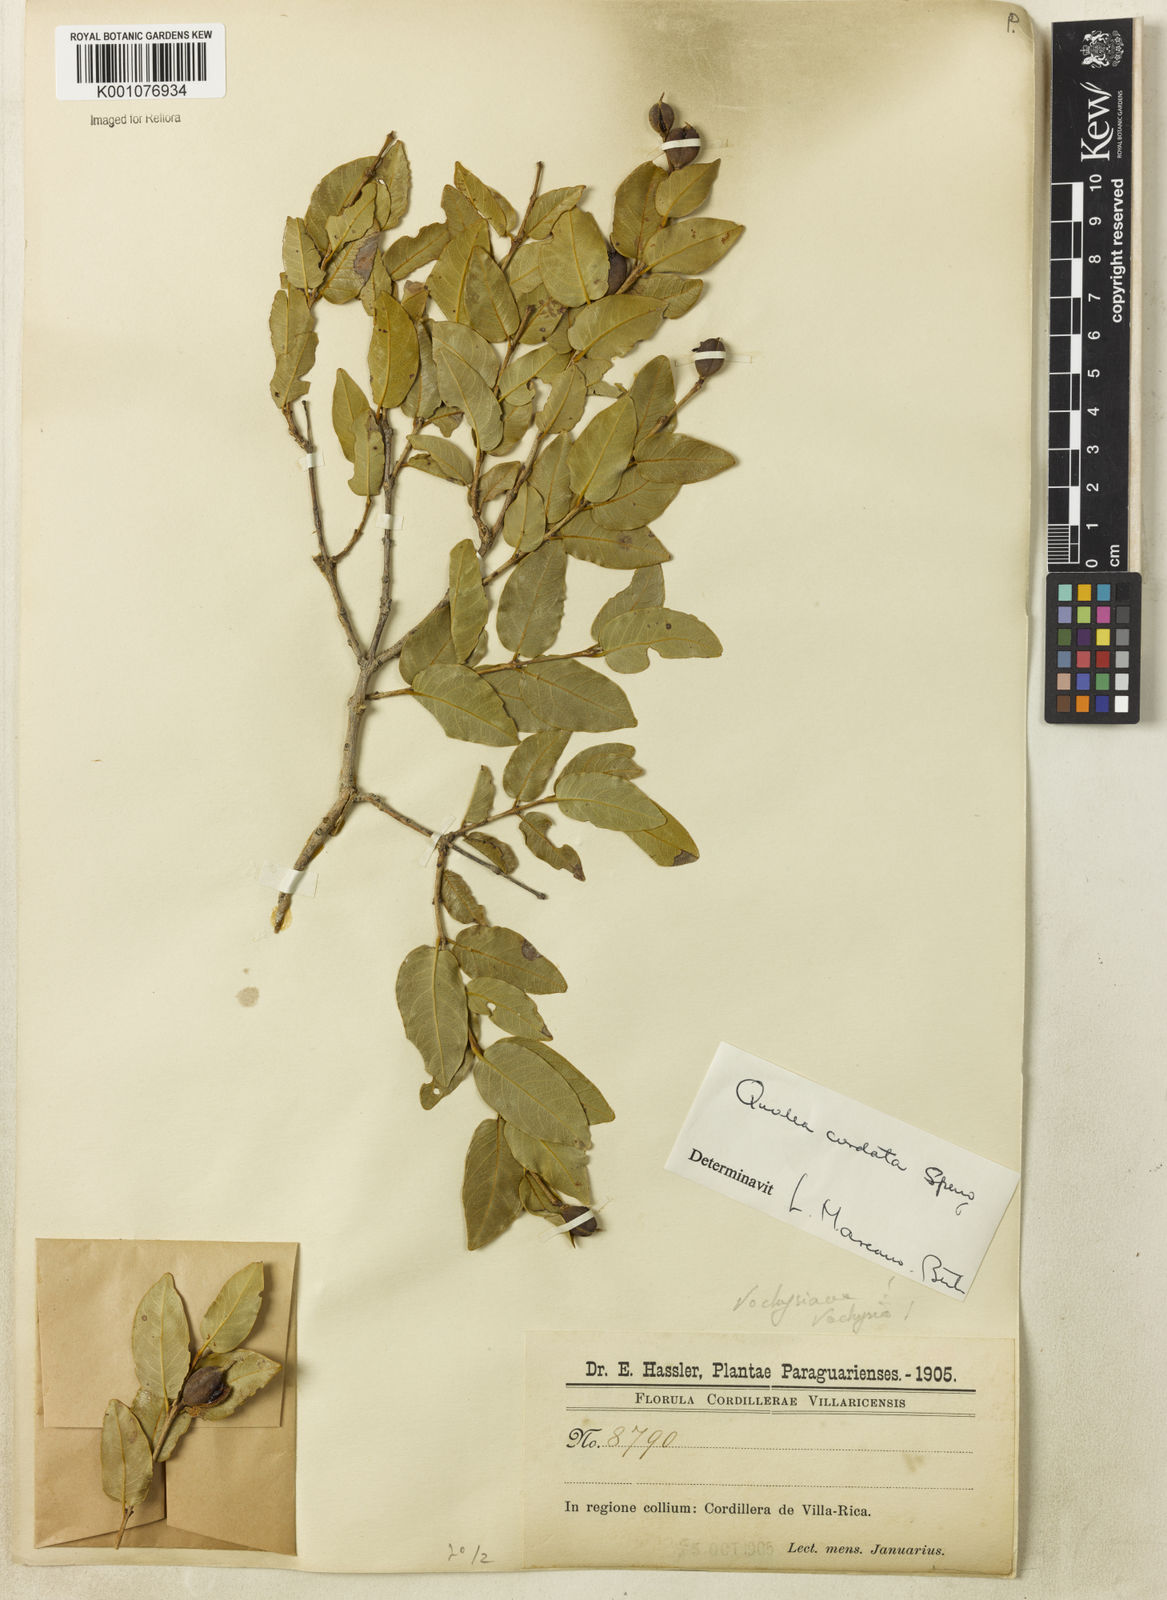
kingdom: Plantae
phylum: Tracheophyta
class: Magnoliopsida
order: Myrtales
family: Vochysiaceae
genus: Qualea
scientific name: Qualea cordata
